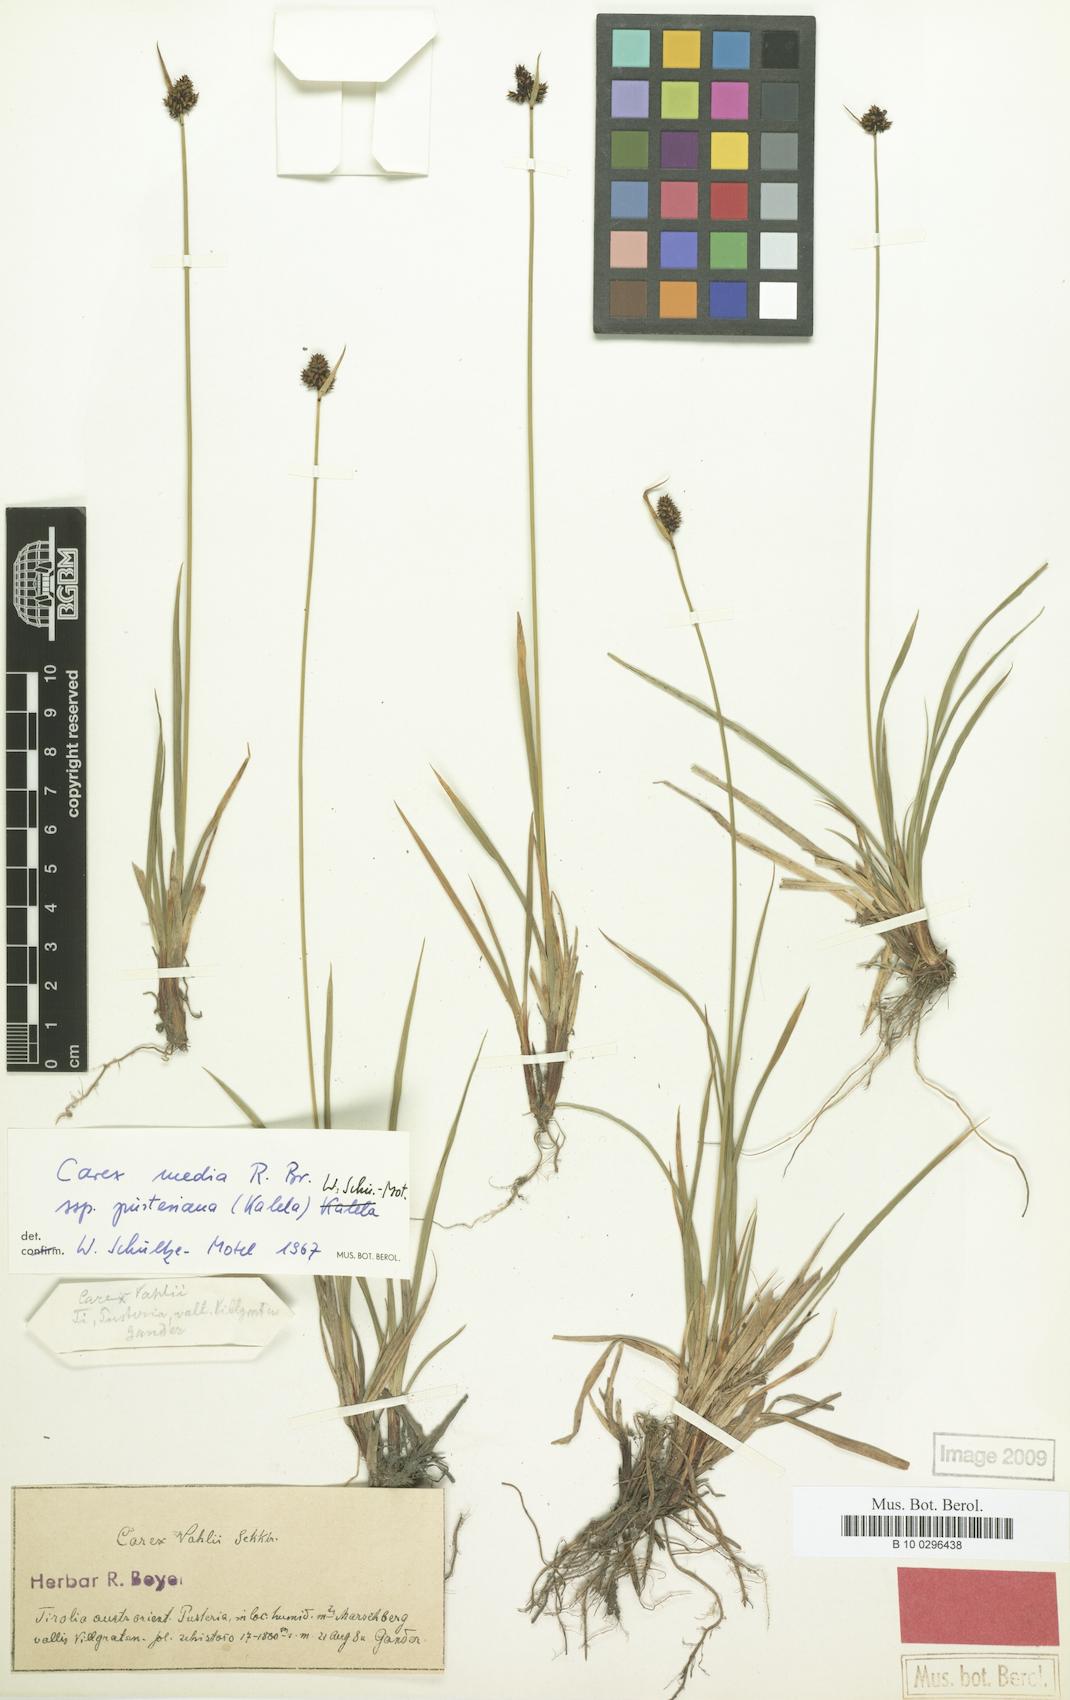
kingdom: Plantae
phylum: Tracheophyta
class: Liliopsida
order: Poales
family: Cyperaceae
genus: Carex
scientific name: Carex norvegica
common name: Close-headed alpine-sedge
